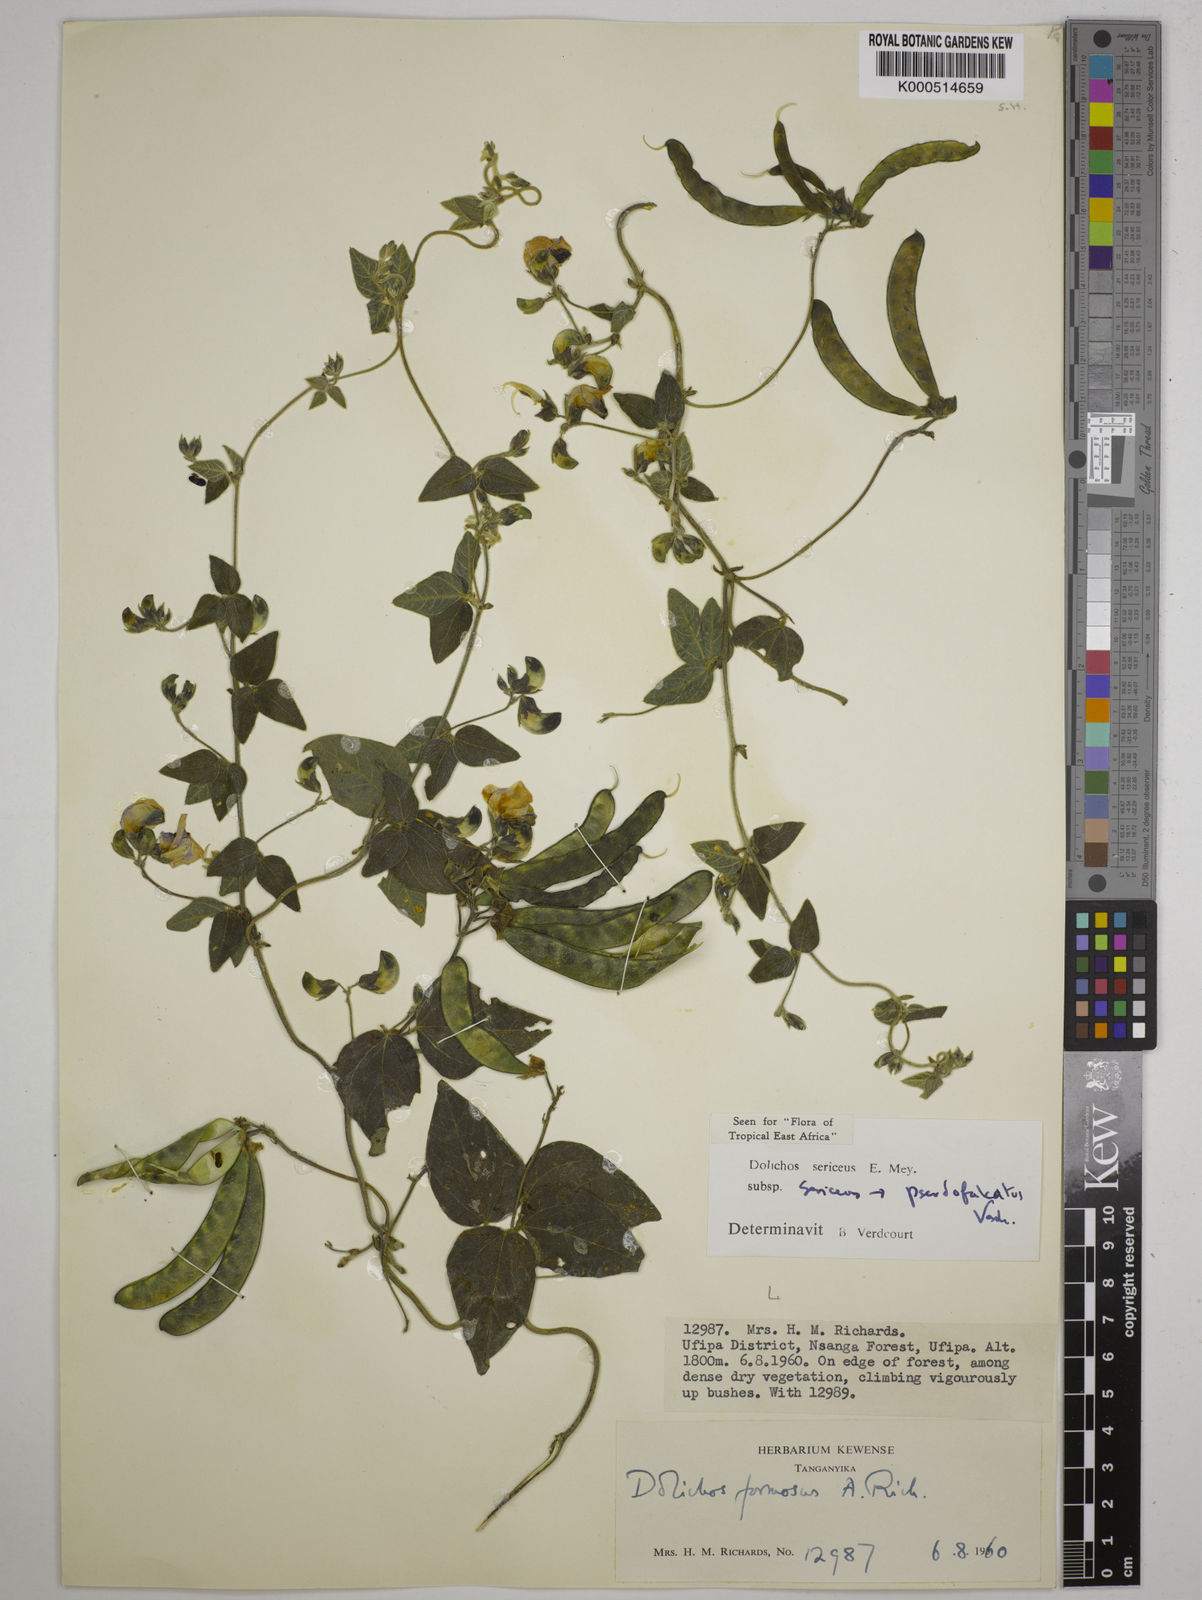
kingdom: Plantae
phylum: Tracheophyta
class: Magnoliopsida
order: Fabales
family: Fabaceae
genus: Dolichos
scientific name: Dolichos sericeus
